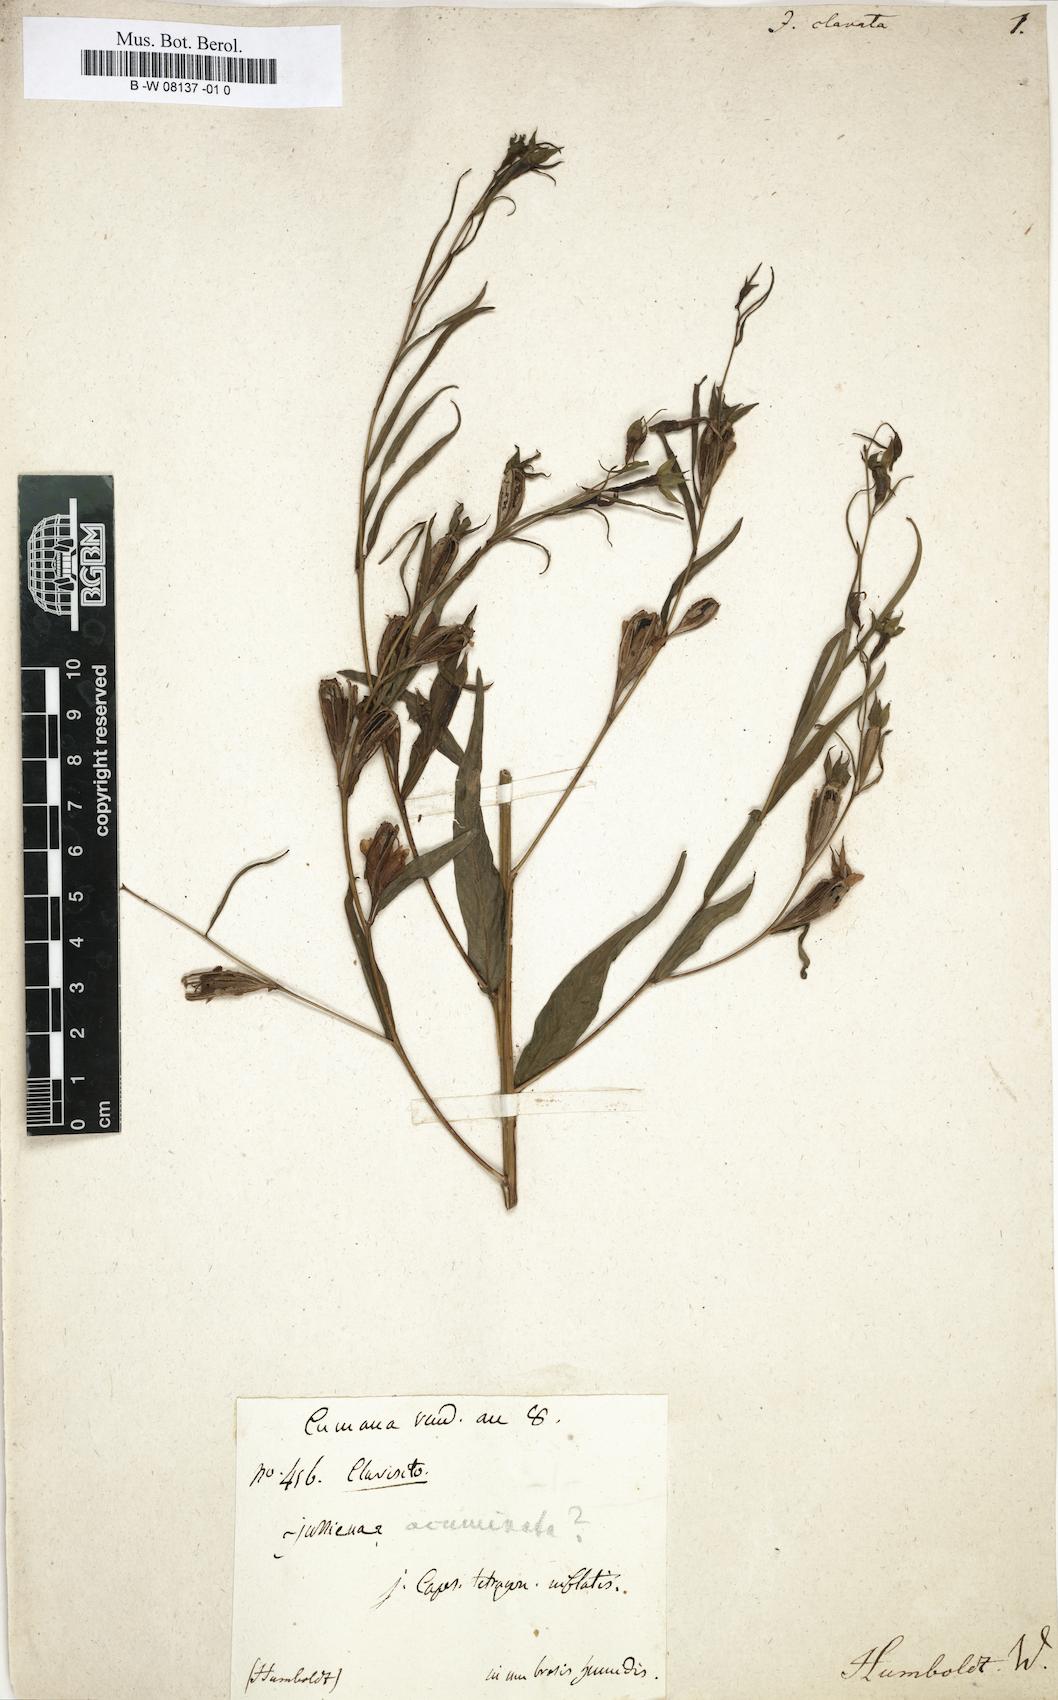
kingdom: Plantae
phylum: Tracheophyta
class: Magnoliopsida
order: Myrtales
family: Onagraceae
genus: Ludwigia
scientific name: Ludwigia octovalvis
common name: Water-primrose
